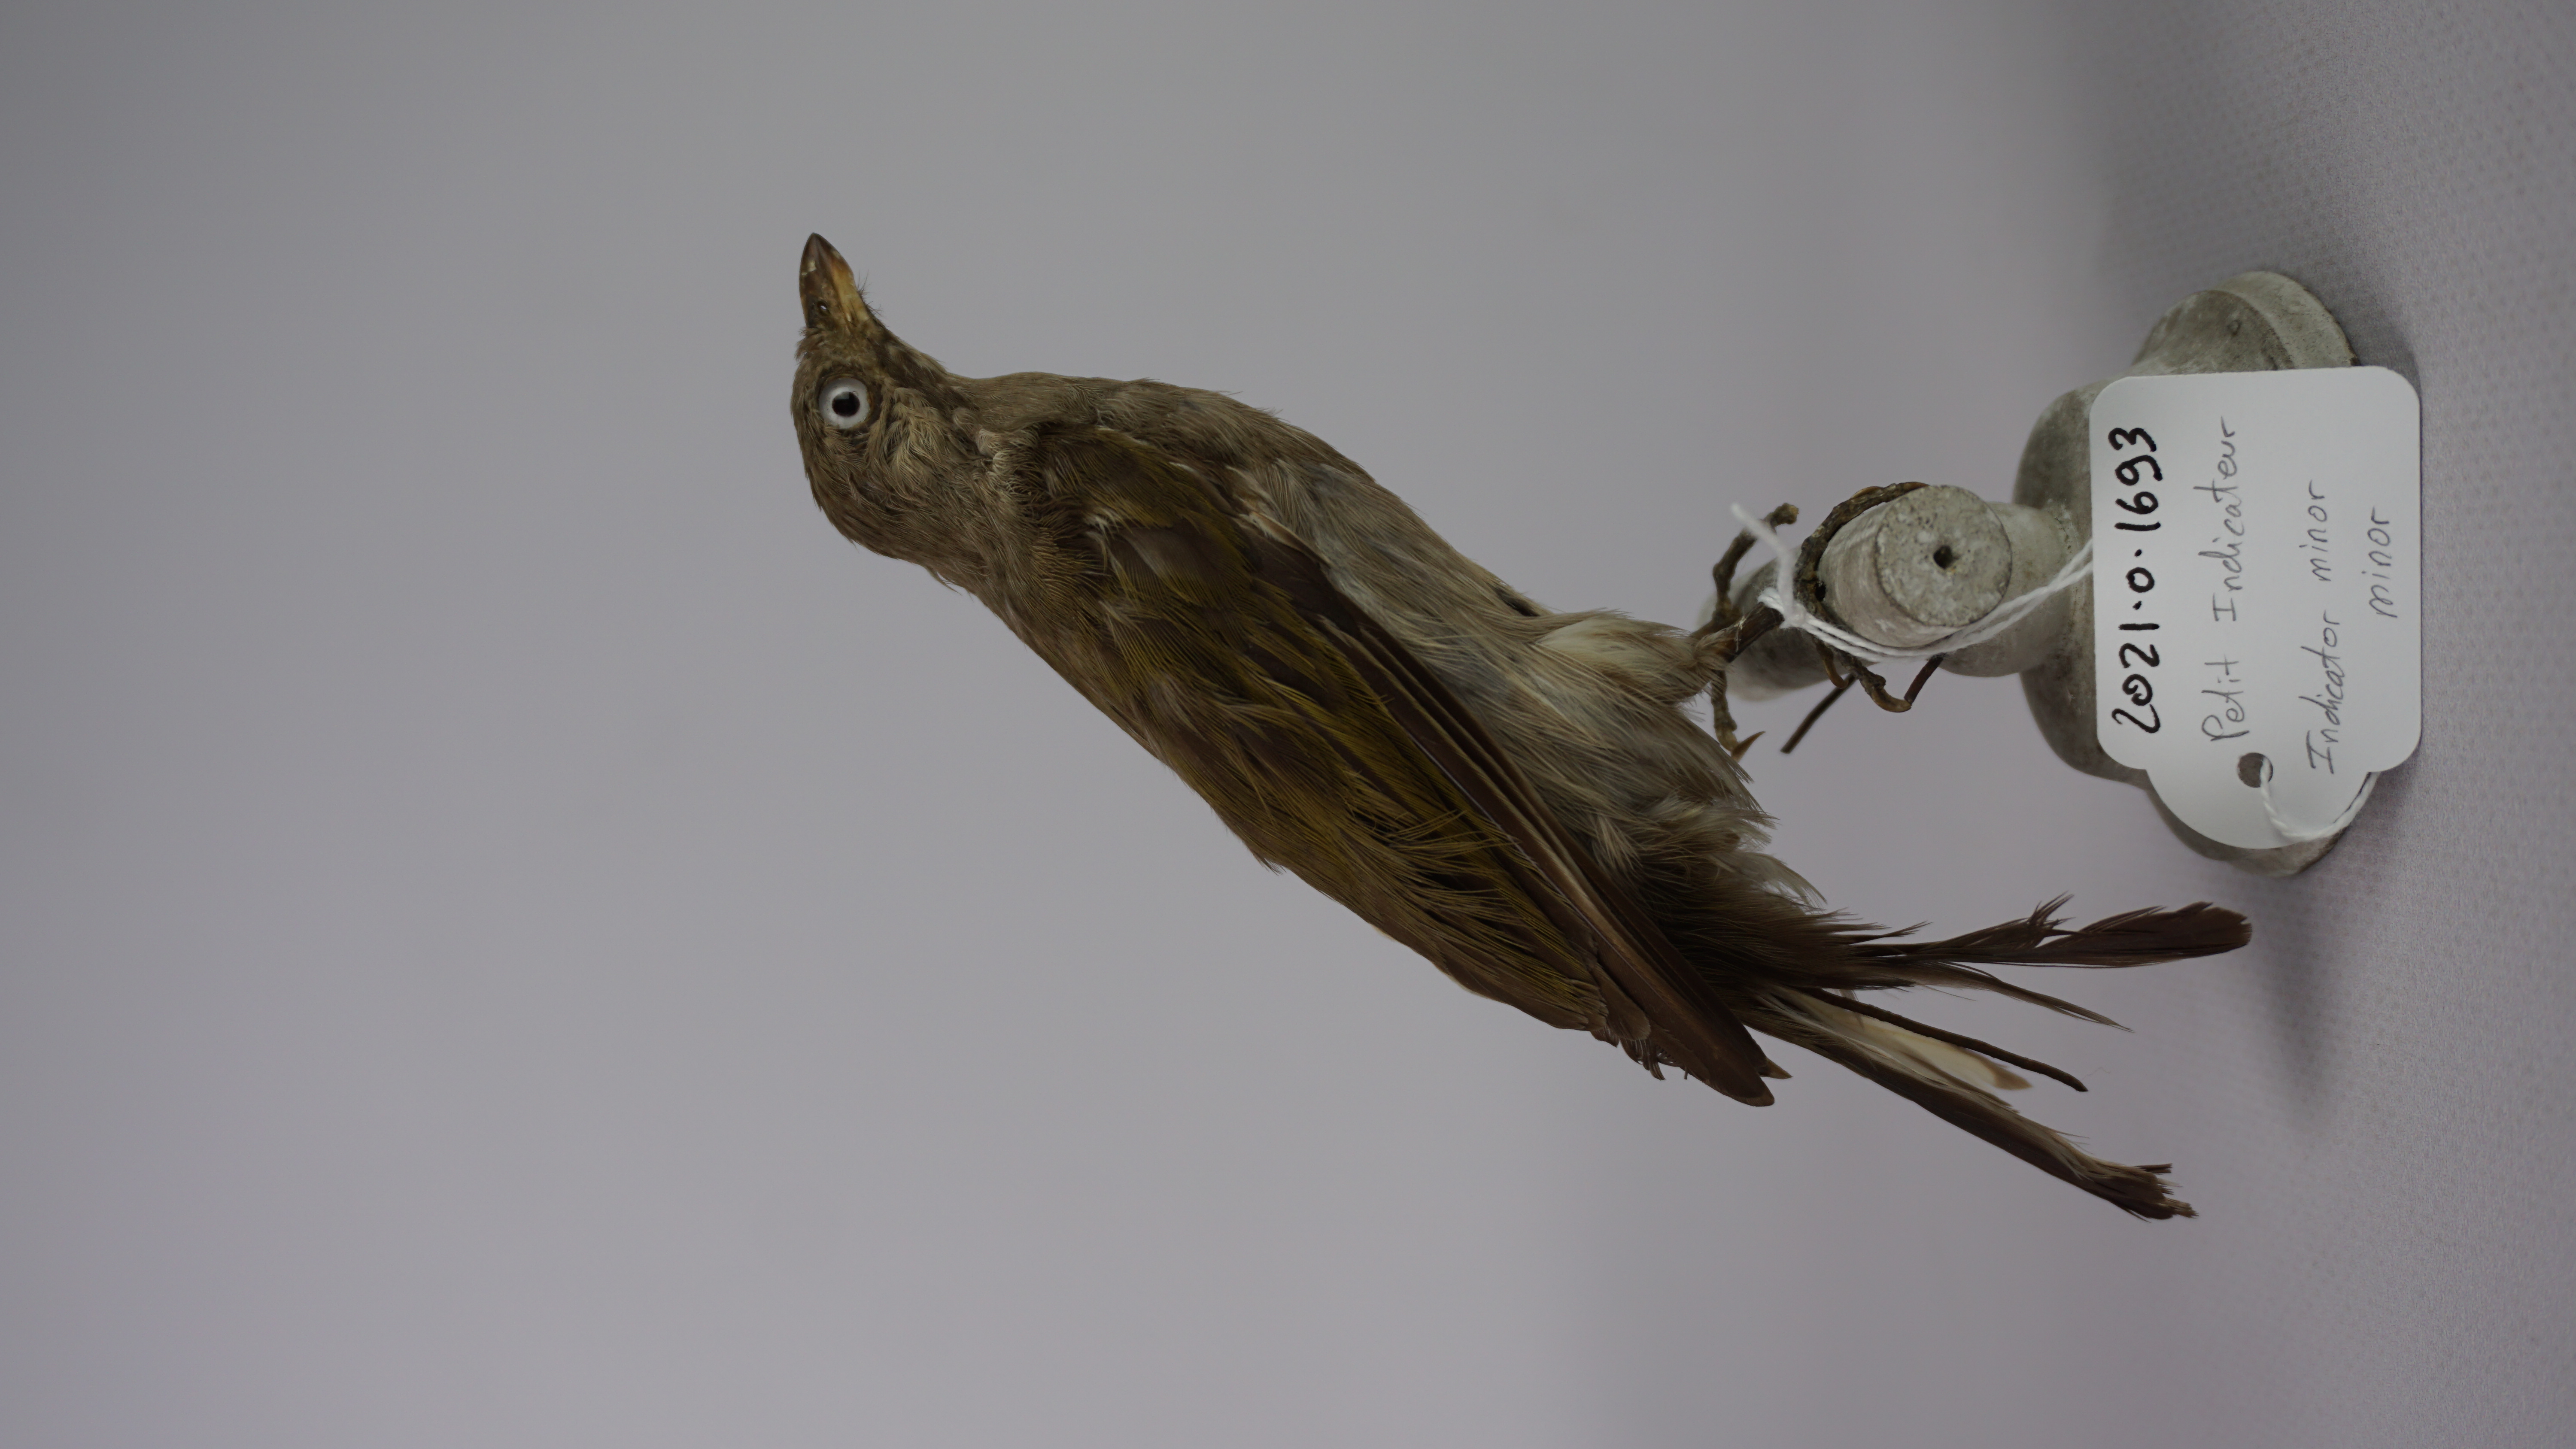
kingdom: Animalia
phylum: Chordata
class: Aves
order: Piciformes
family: Indicatoridae
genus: Indicator
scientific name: Indicator minor
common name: Lesser honeyguide
